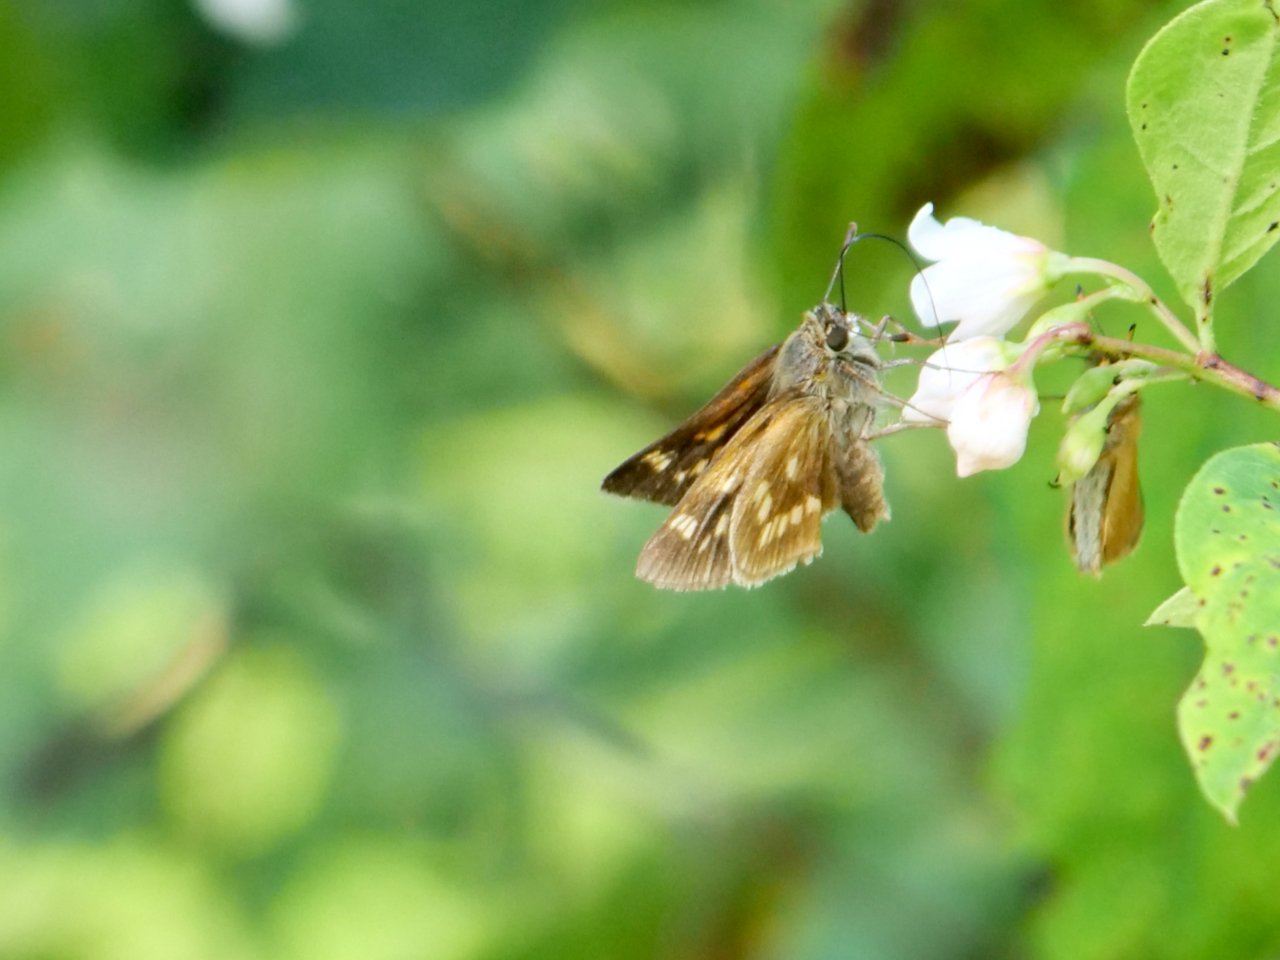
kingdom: Animalia
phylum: Arthropoda
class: Insecta
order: Lepidoptera
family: Hesperiidae
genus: Polites
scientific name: Polites
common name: Long Dash Skipper
